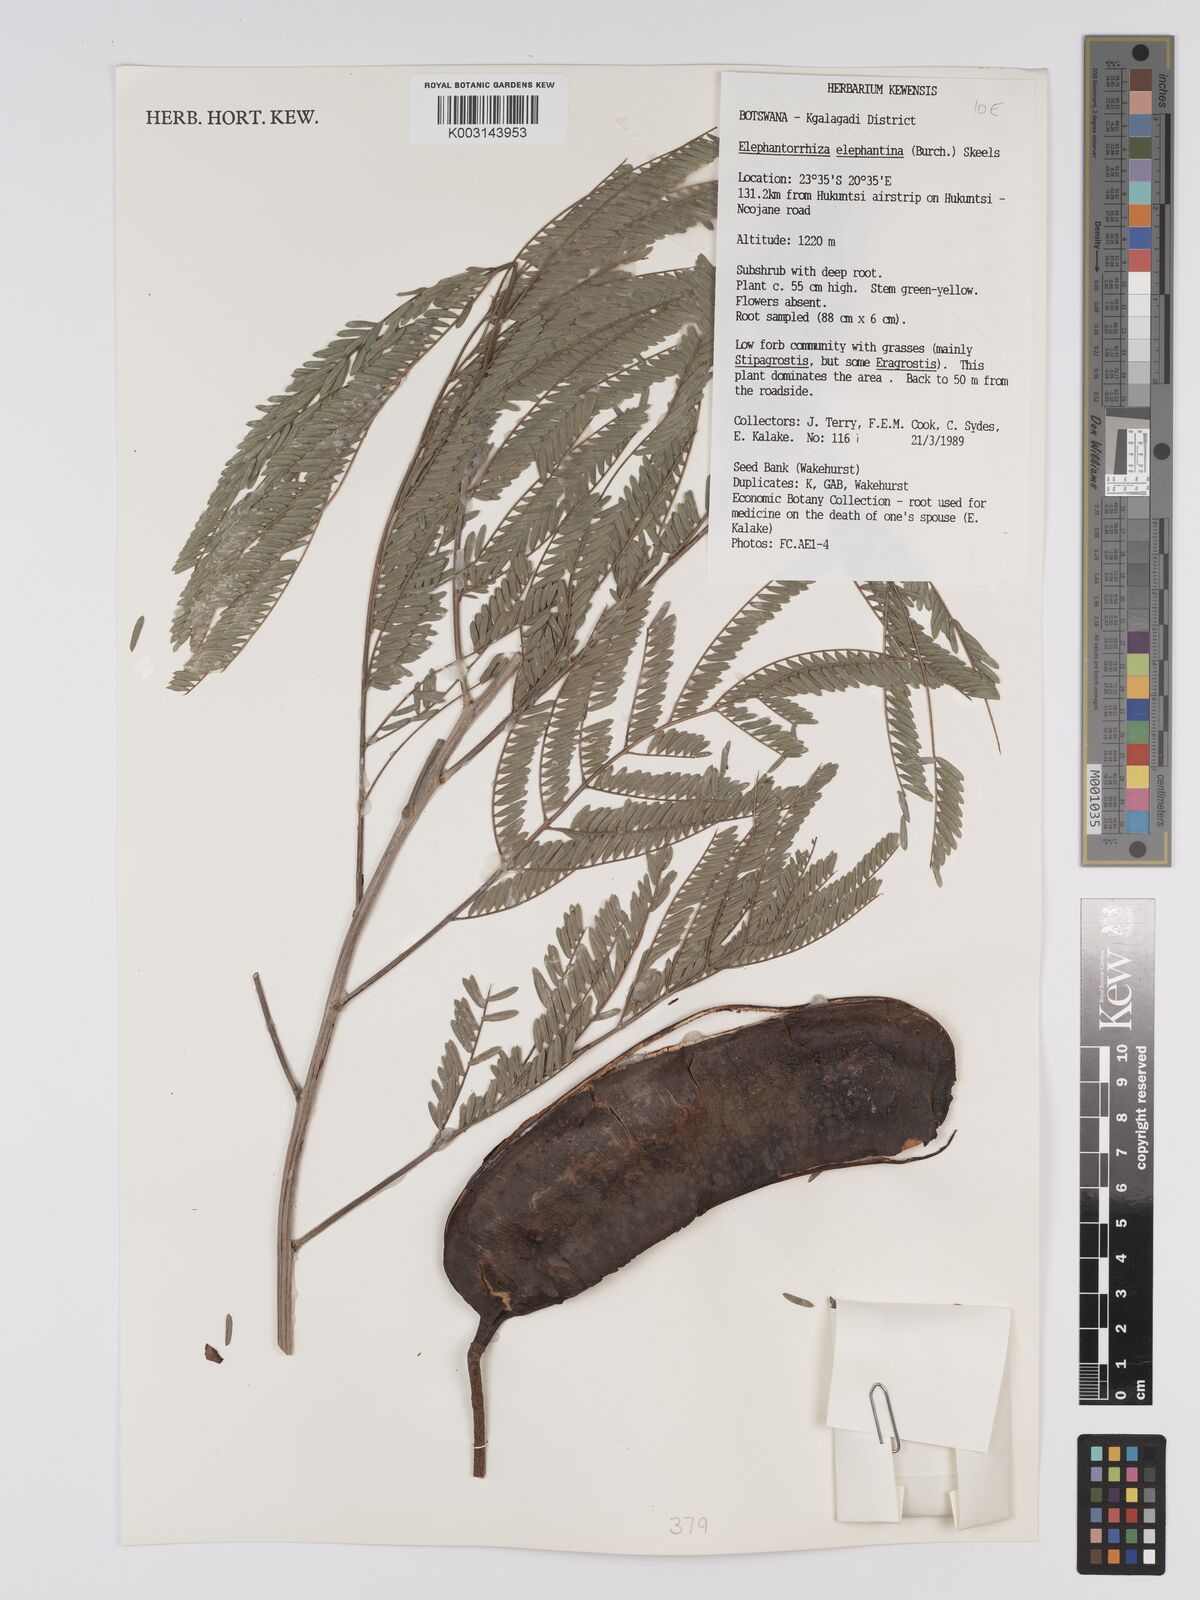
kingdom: Plantae
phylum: Tracheophyta
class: Magnoliopsida
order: Fabales
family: Fabaceae
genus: Elephantorrhiza
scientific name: Elephantorrhiza elephantina
